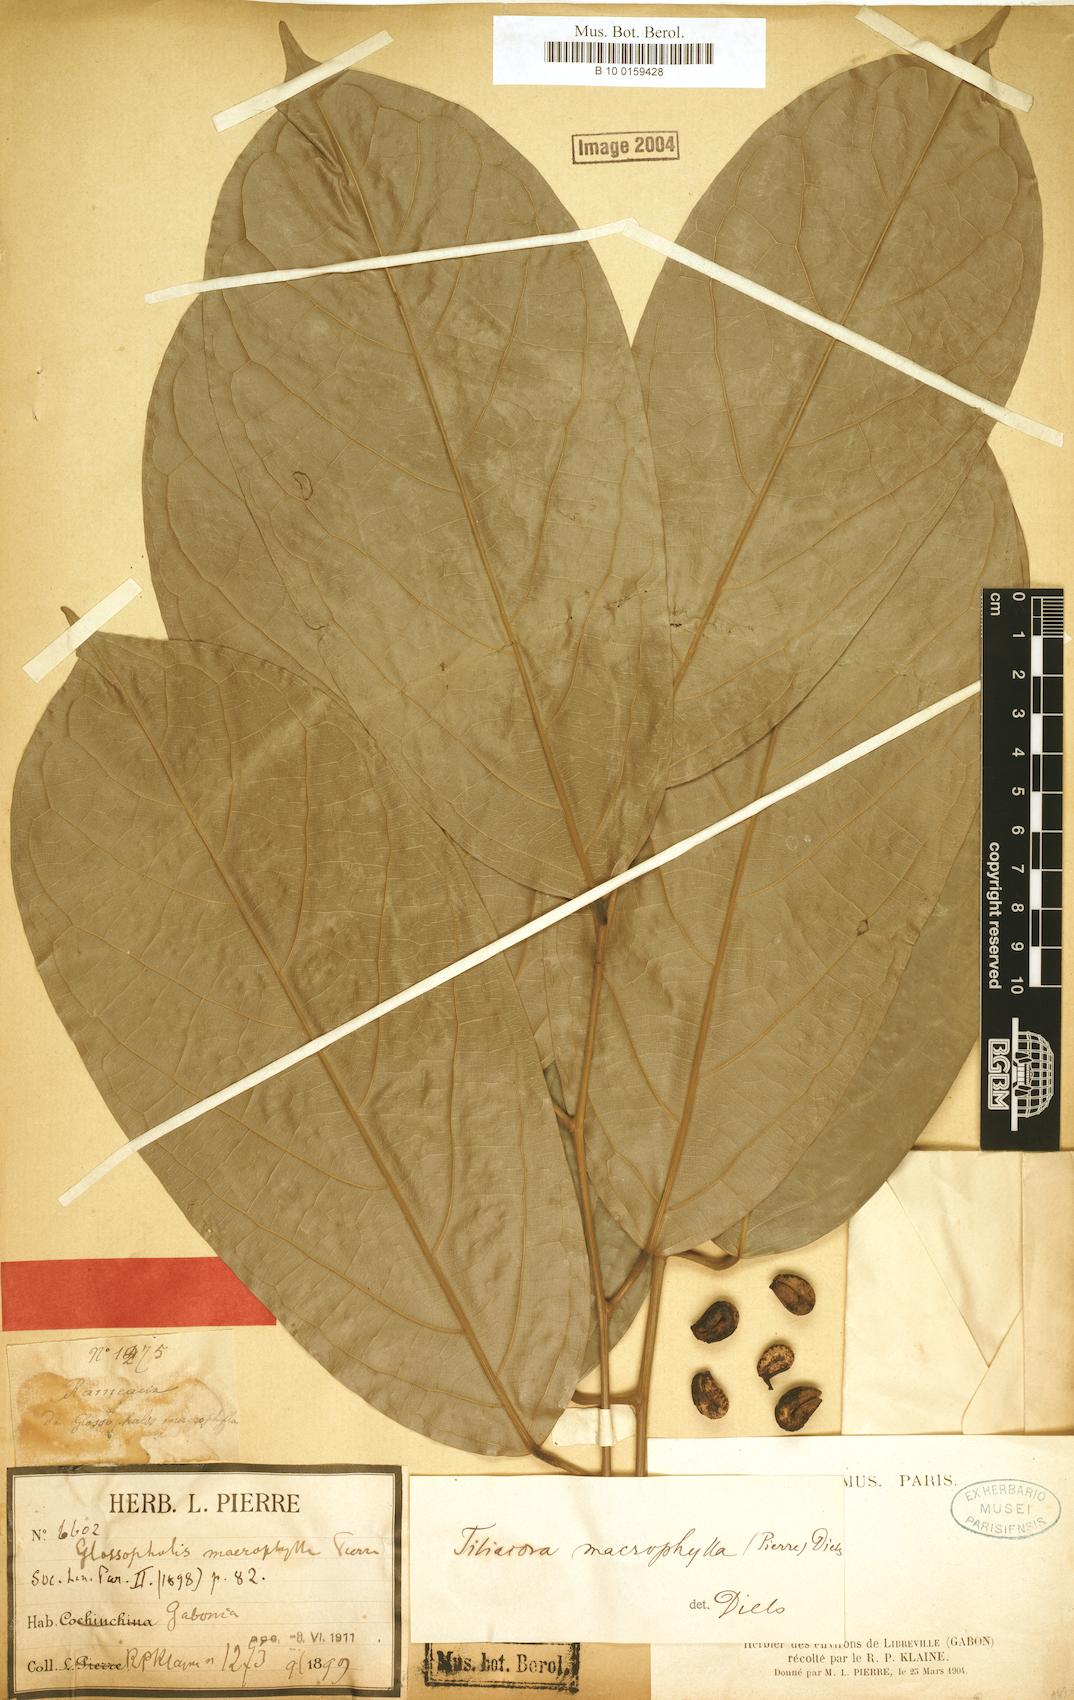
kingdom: Plantae
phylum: Tracheophyta
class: Magnoliopsida
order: Ranunculales
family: Menispermaceae
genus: Tiliacora
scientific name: Tiliacora macrophylla
